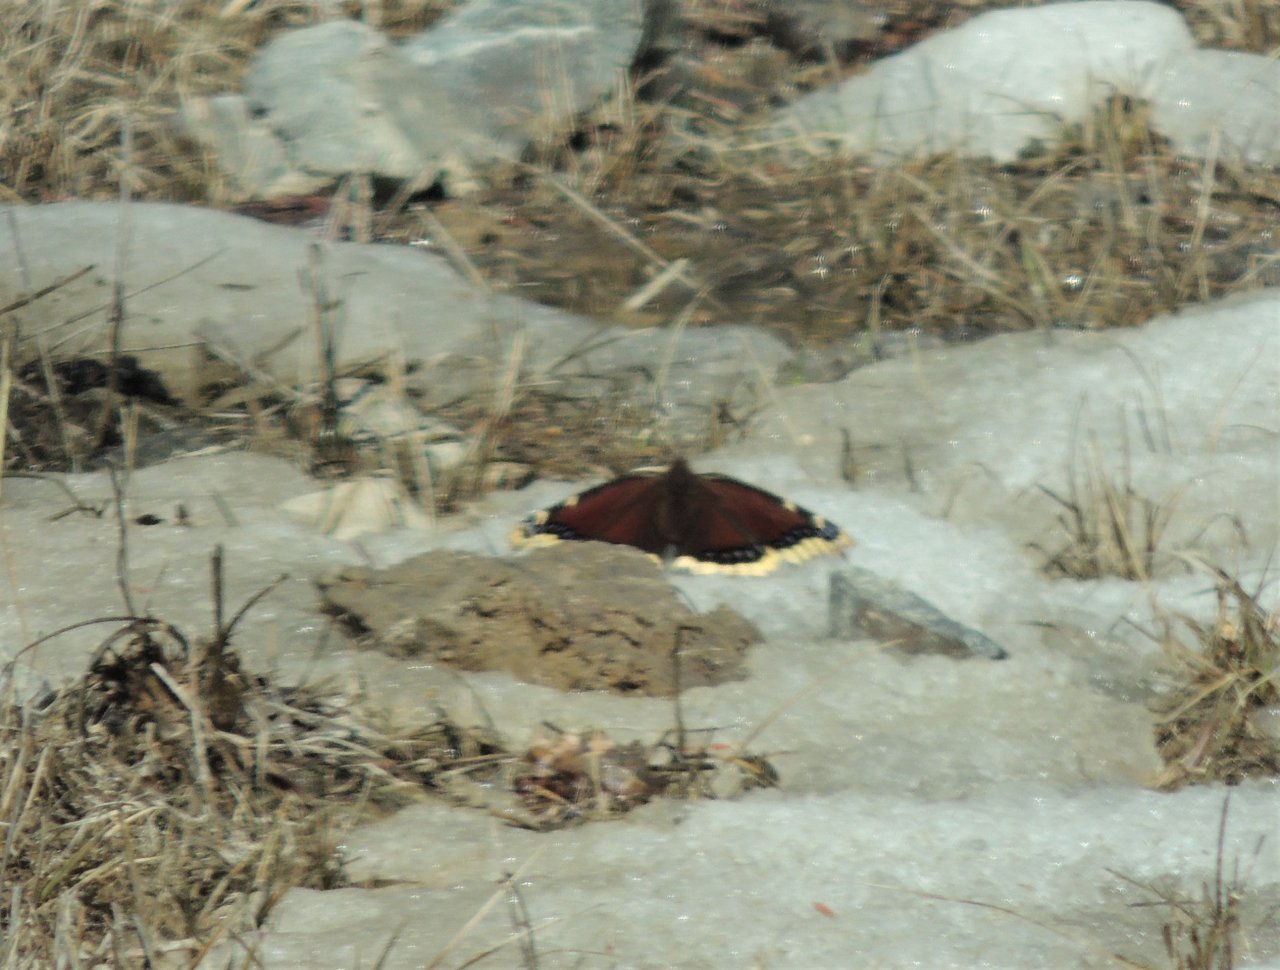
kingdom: Animalia
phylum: Arthropoda
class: Insecta
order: Lepidoptera
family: Nymphalidae
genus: Nymphalis
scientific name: Nymphalis antiopa
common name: Mourning Cloak
